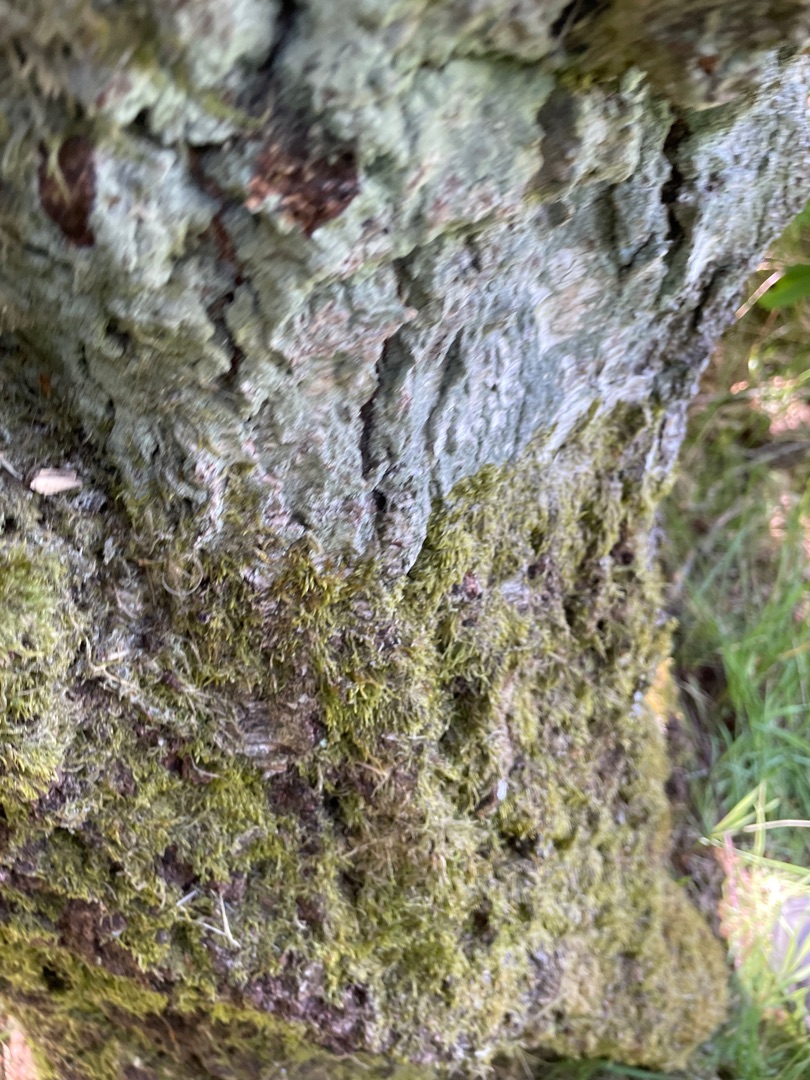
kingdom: Fungi
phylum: Ascomycota
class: Lecanoromycetes
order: Lecanorales
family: Stereocaulaceae
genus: Lepraria
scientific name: Lepraria incana
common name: Almindelig støvlav
